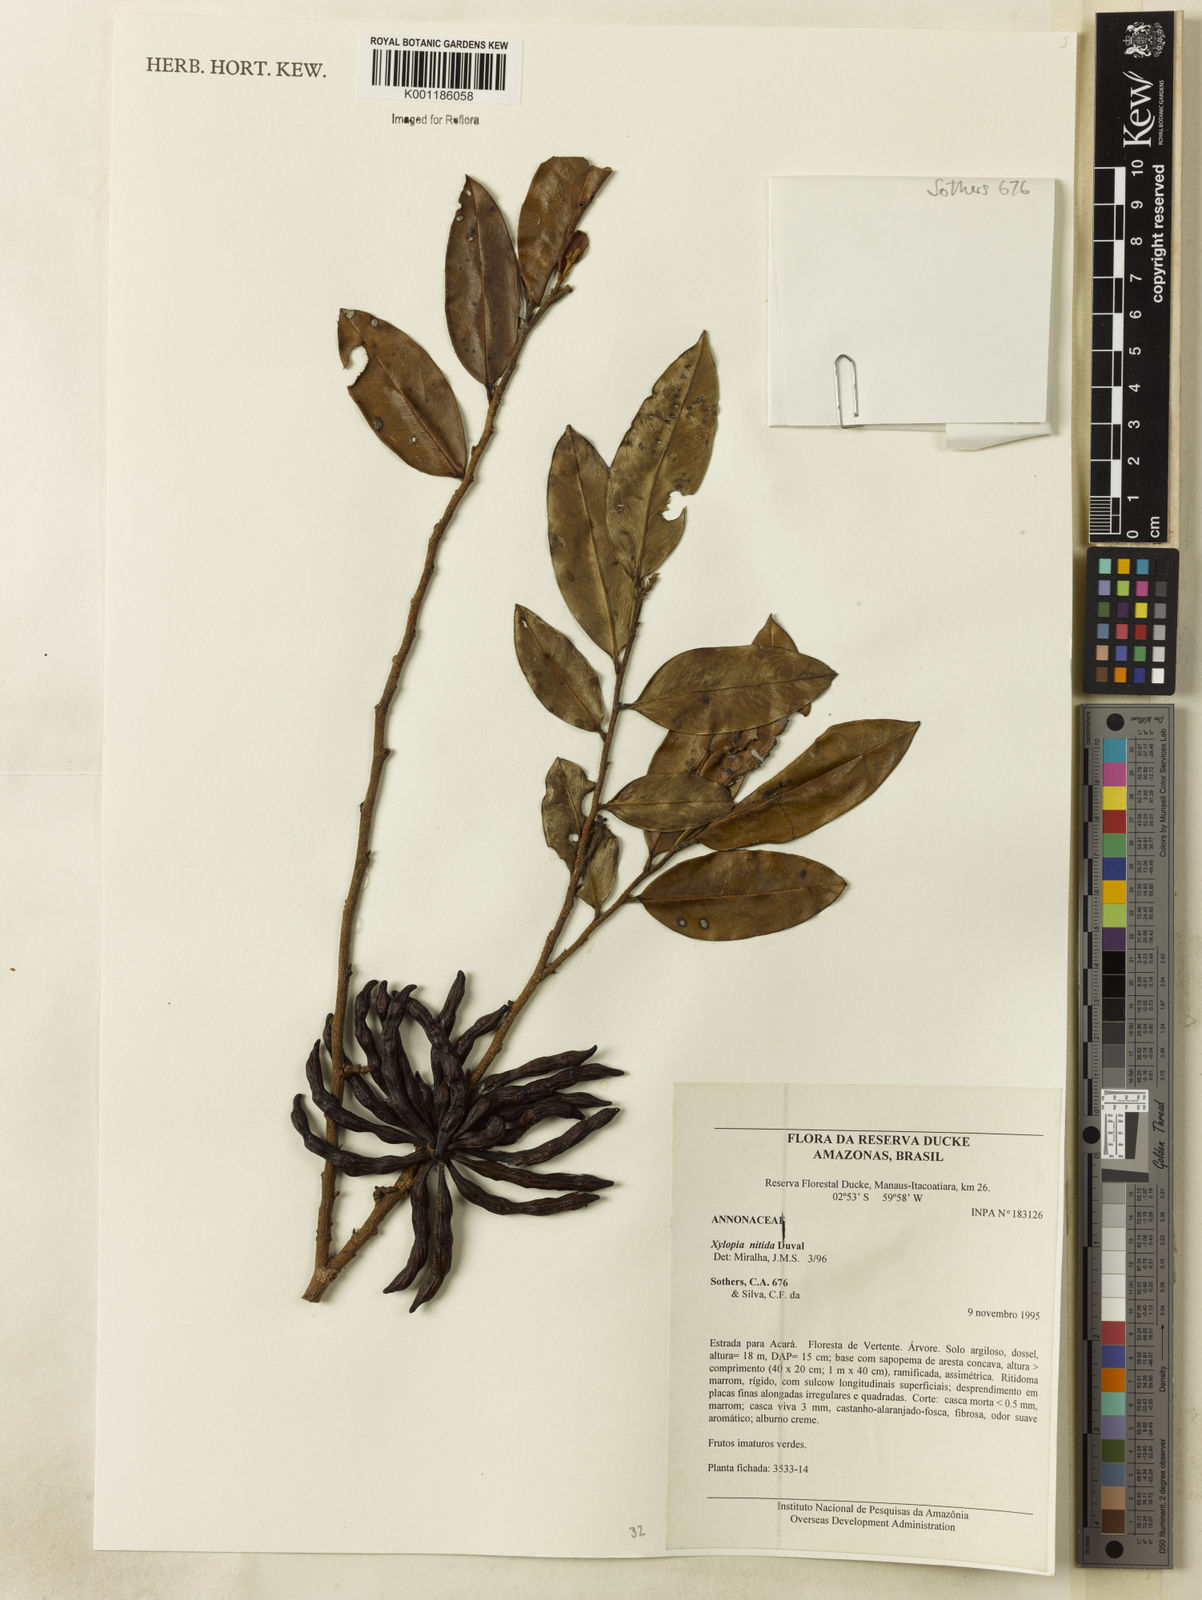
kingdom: Plantae
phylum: Tracheophyta
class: Magnoliopsida
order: Magnoliales
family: Annonaceae
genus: Xylopia
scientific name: Xylopia nitida
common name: White kuyama
